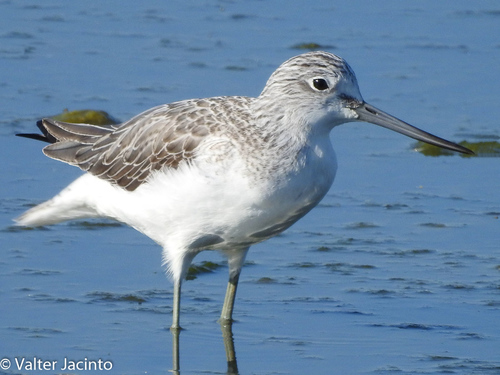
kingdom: Animalia
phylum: Chordata
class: Aves
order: Charadriiformes
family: Scolopacidae
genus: Tringa
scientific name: Tringa nebularia
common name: Common greenshank
